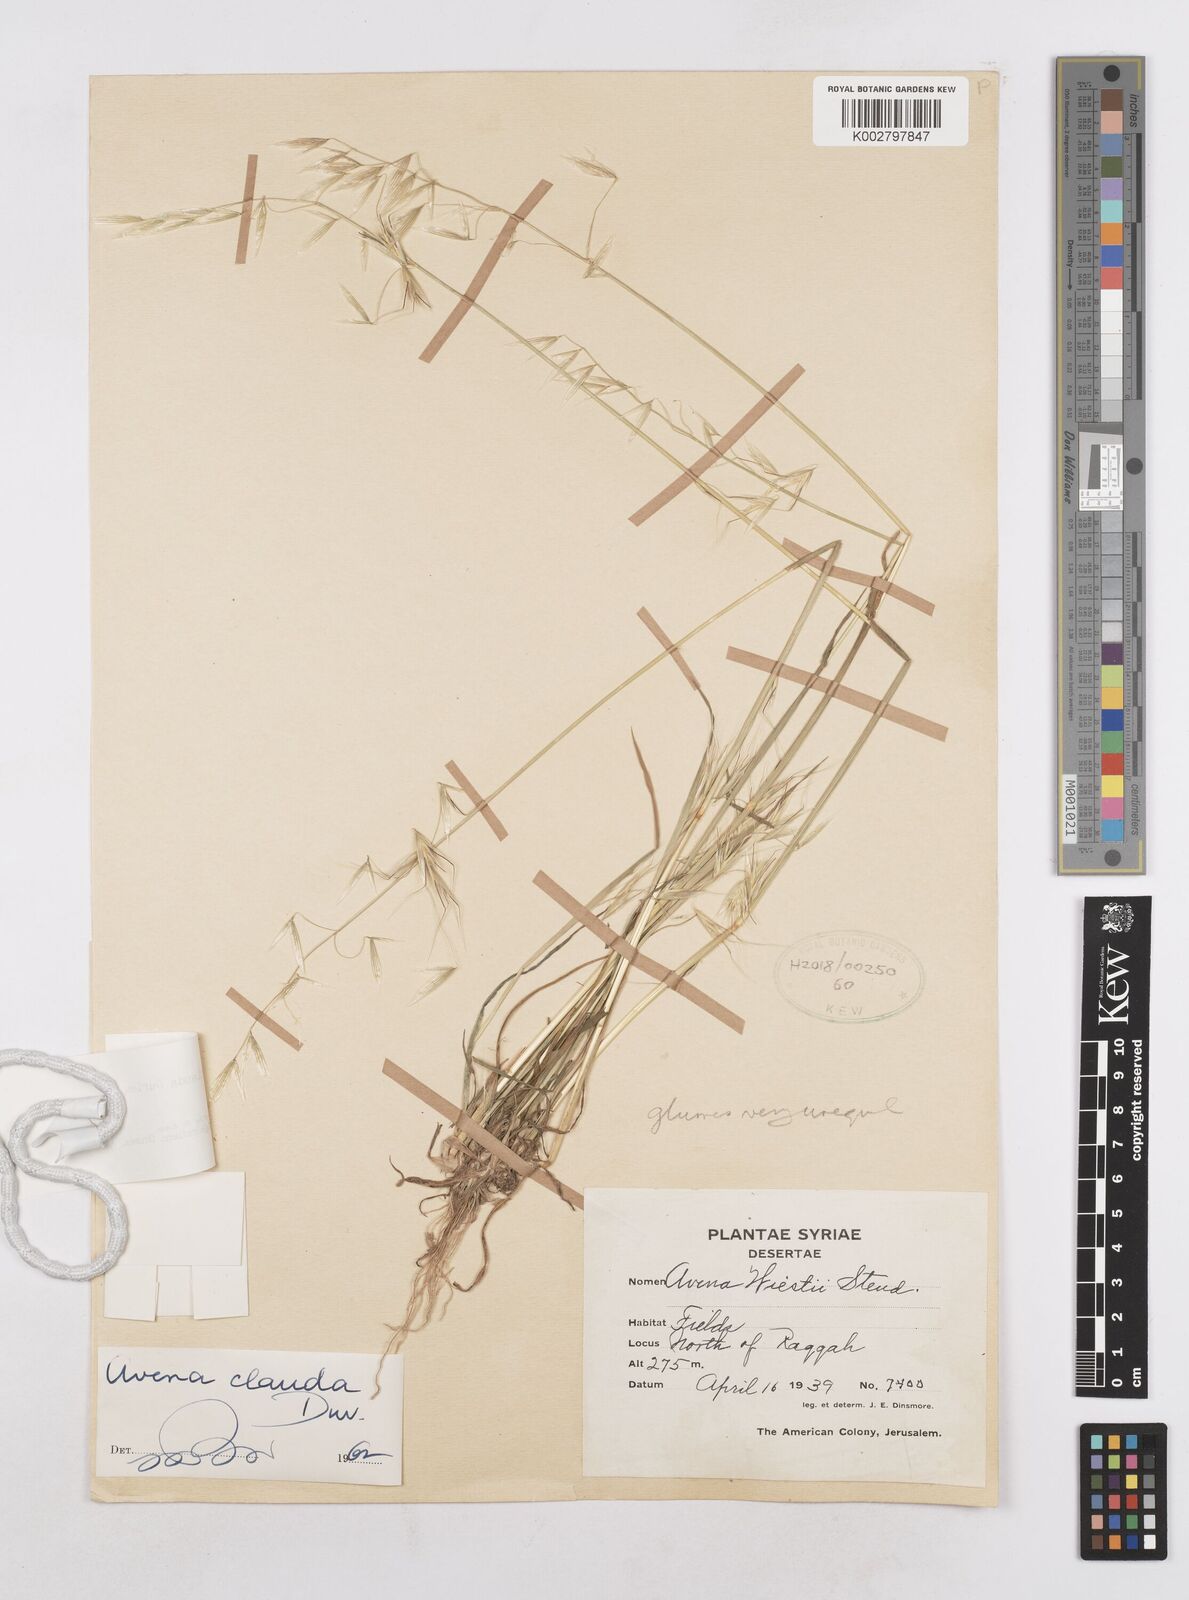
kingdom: Plantae
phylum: Tracheophyta
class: Liliopsida
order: Poales
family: Poaceae
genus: Avena
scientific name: Avena clauda
